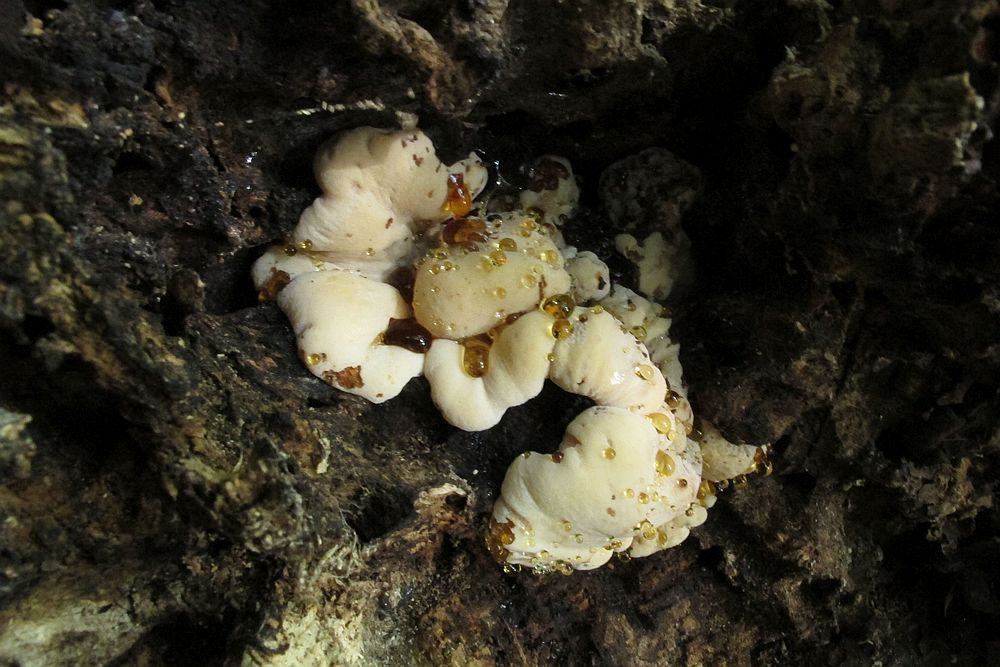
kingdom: Fungi
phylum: Basidiomycota
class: Agaricomycetes
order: Polyporales
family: Ischnodermataceae
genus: Ischnoderma
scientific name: Ischnoderma resinosum
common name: løv-tjæreporesvamp
